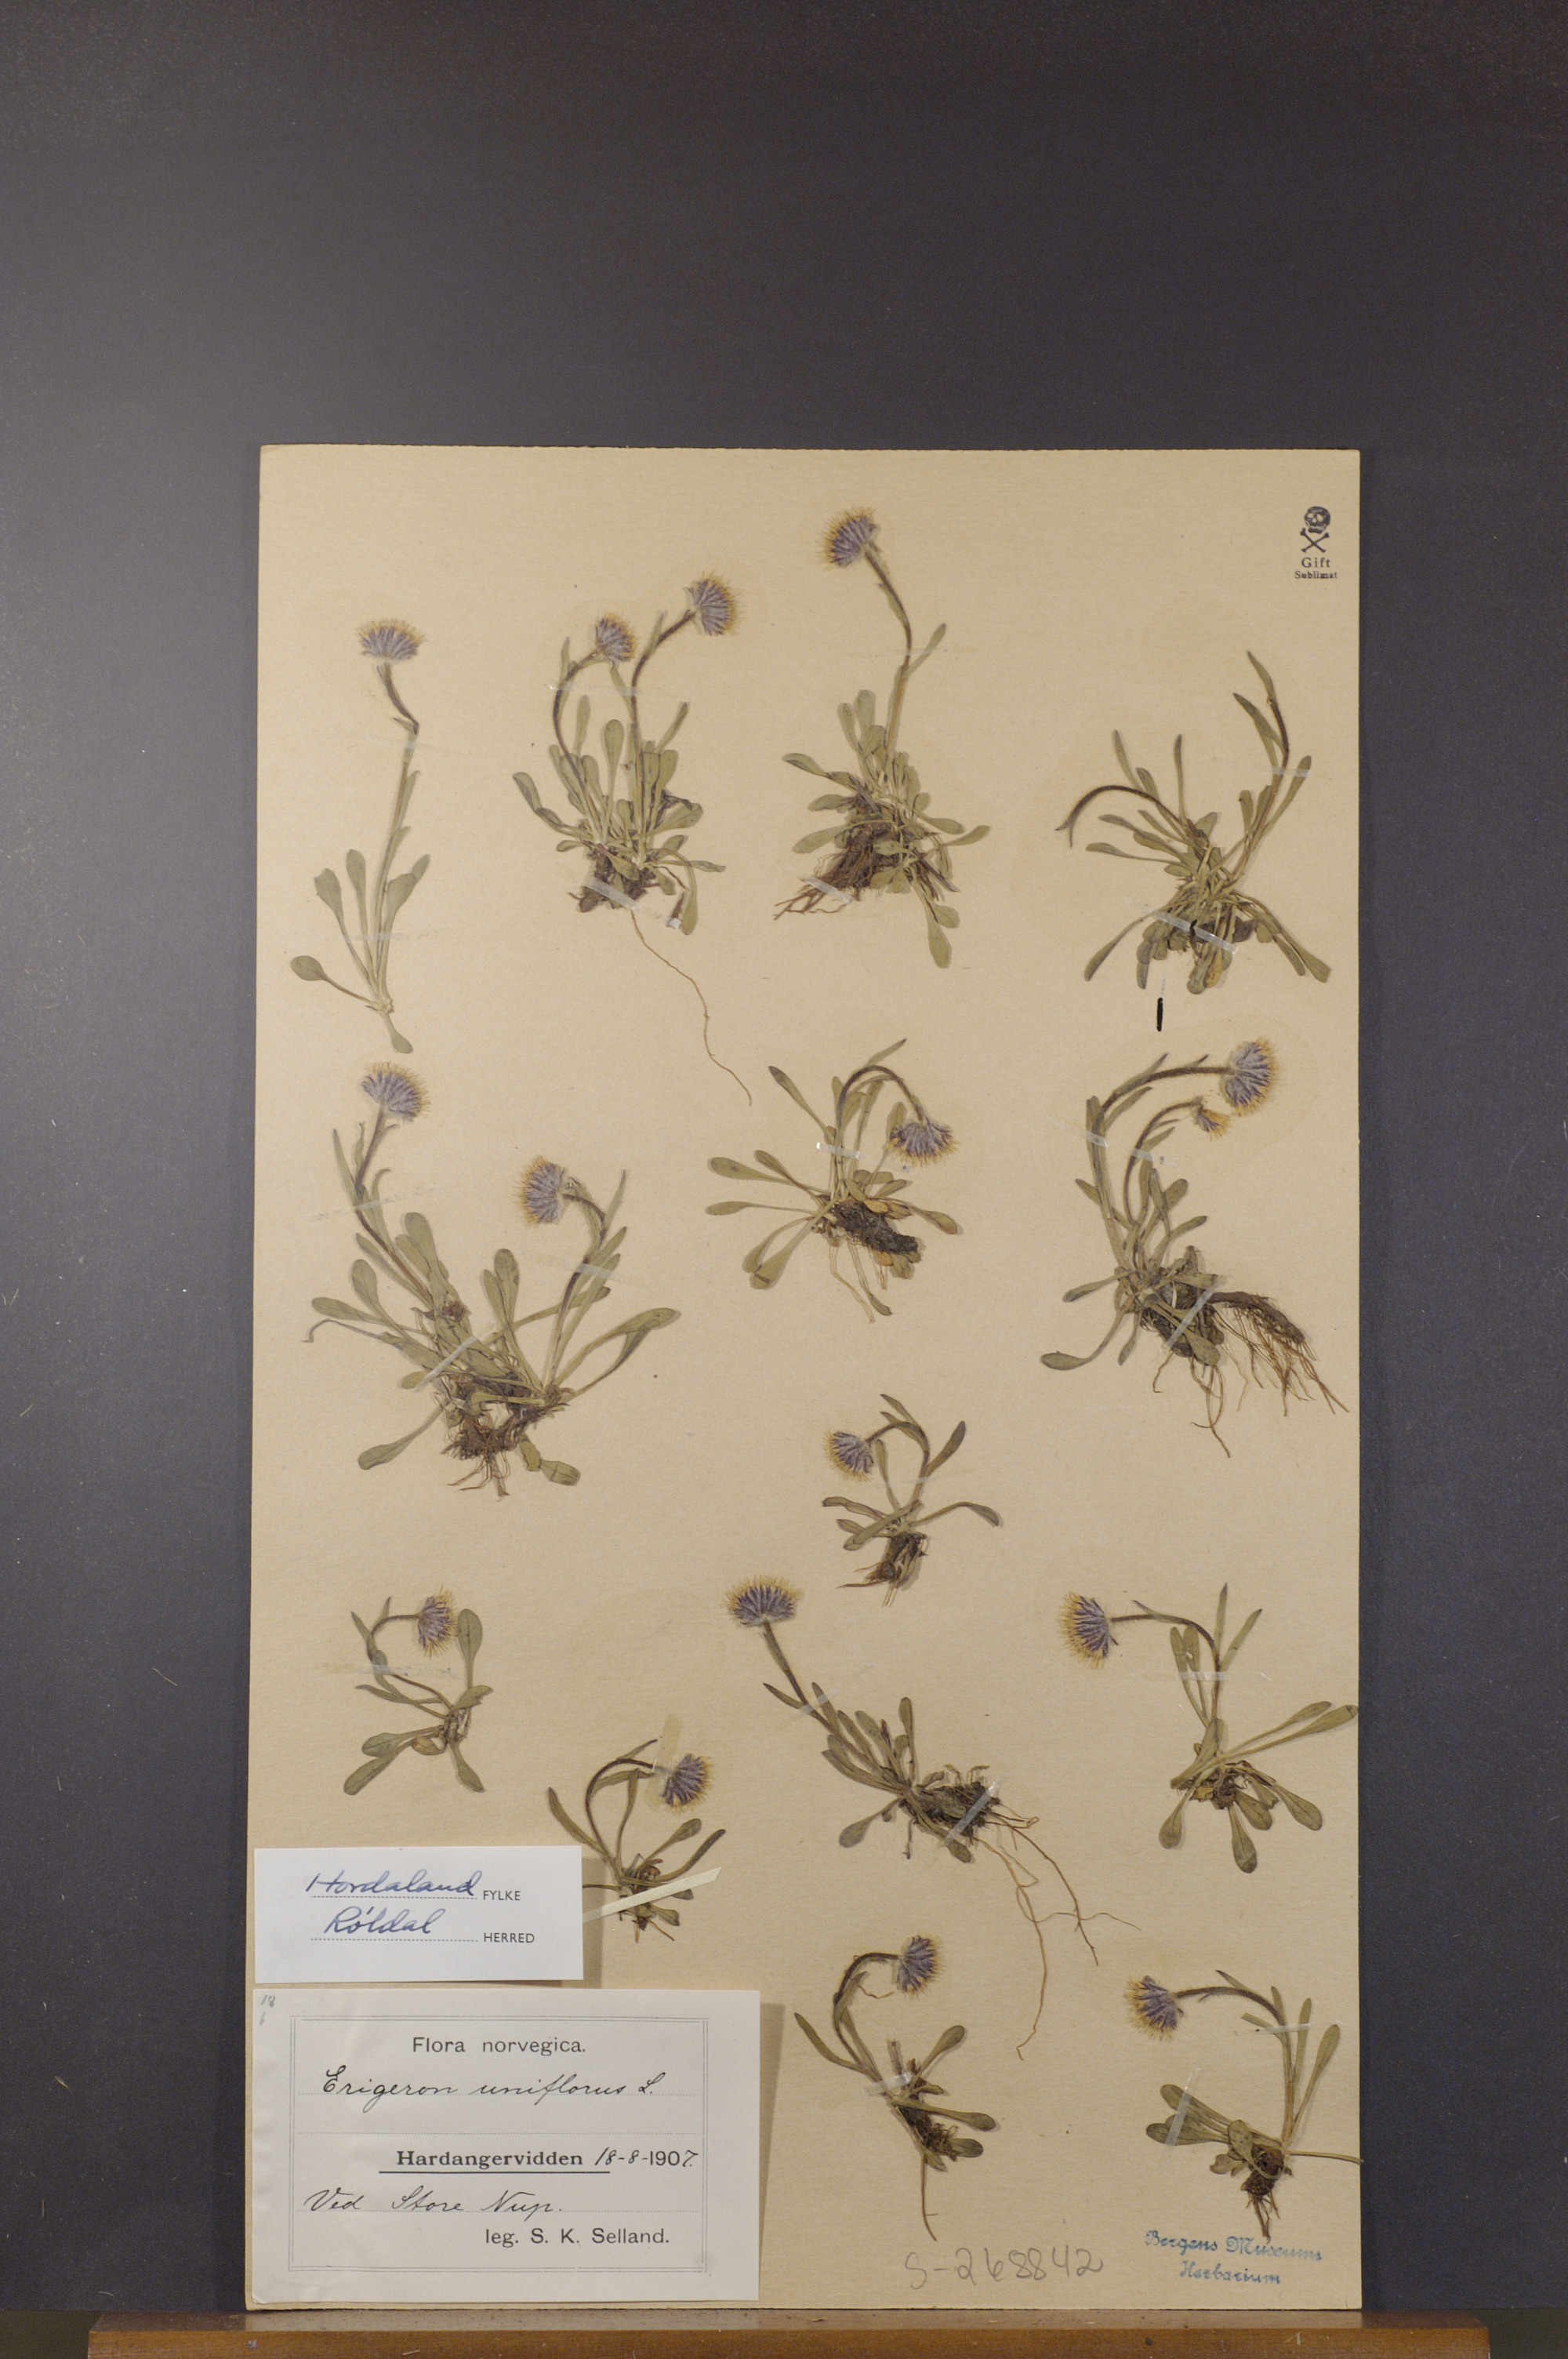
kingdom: Plantae
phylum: Tracheophyta
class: Magnoliopsida
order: Asterales
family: Asteraceae
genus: Erigeron
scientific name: Erigeron uniflorus
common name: Northern daisy
